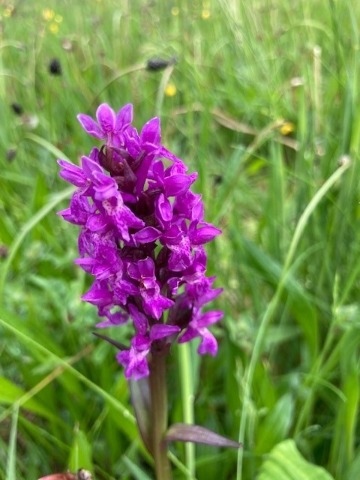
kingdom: Plantae
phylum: Tracheophyta
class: Liliopsida
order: Asparagales
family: Orchidaceae
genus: Dactylorhiza
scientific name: Dactylorhiza majalis
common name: Maj-gøgeurt
